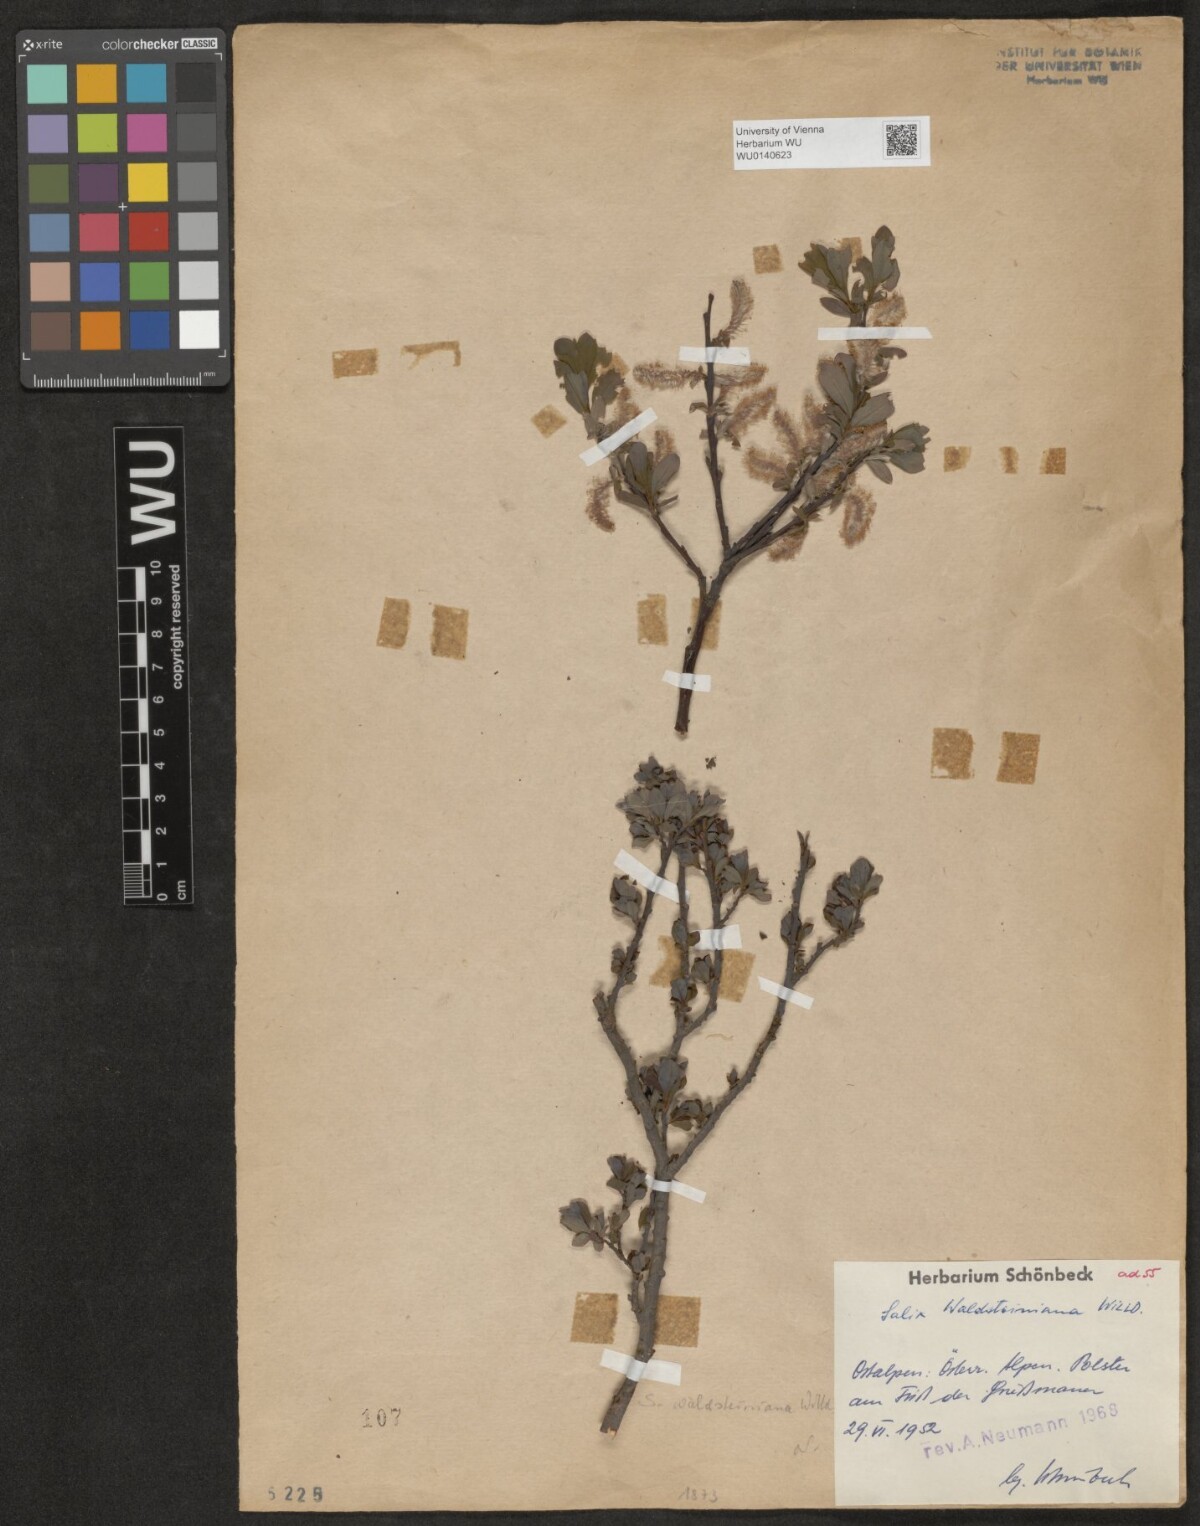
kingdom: Plantae
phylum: Tracheophyta
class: Magnoliopsida
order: Malpighiales
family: Salicaceae
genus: Salix
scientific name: Salix waldsteiniana
